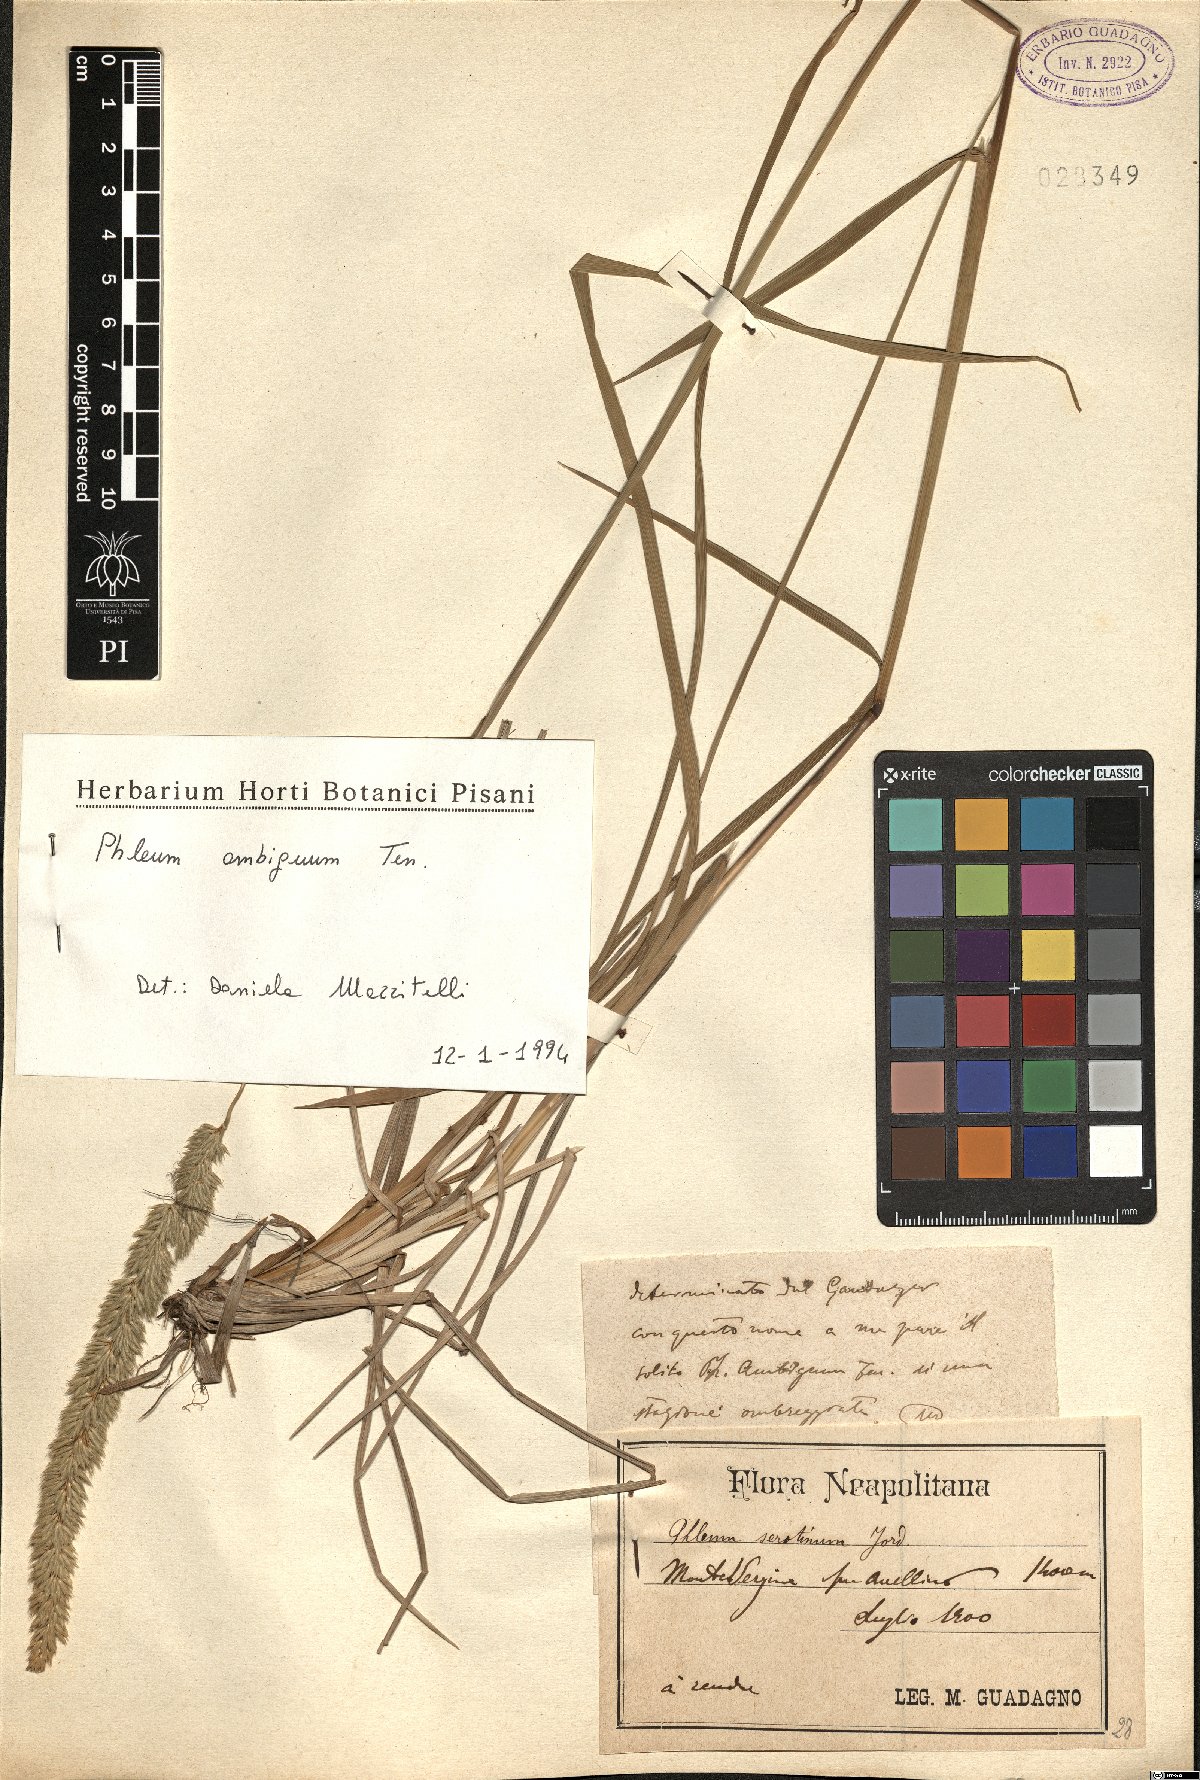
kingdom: Plantae
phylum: Tracheophyta
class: Liliopsida
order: Poales
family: Poaceae
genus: Phleum
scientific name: Phleum hirsutum
